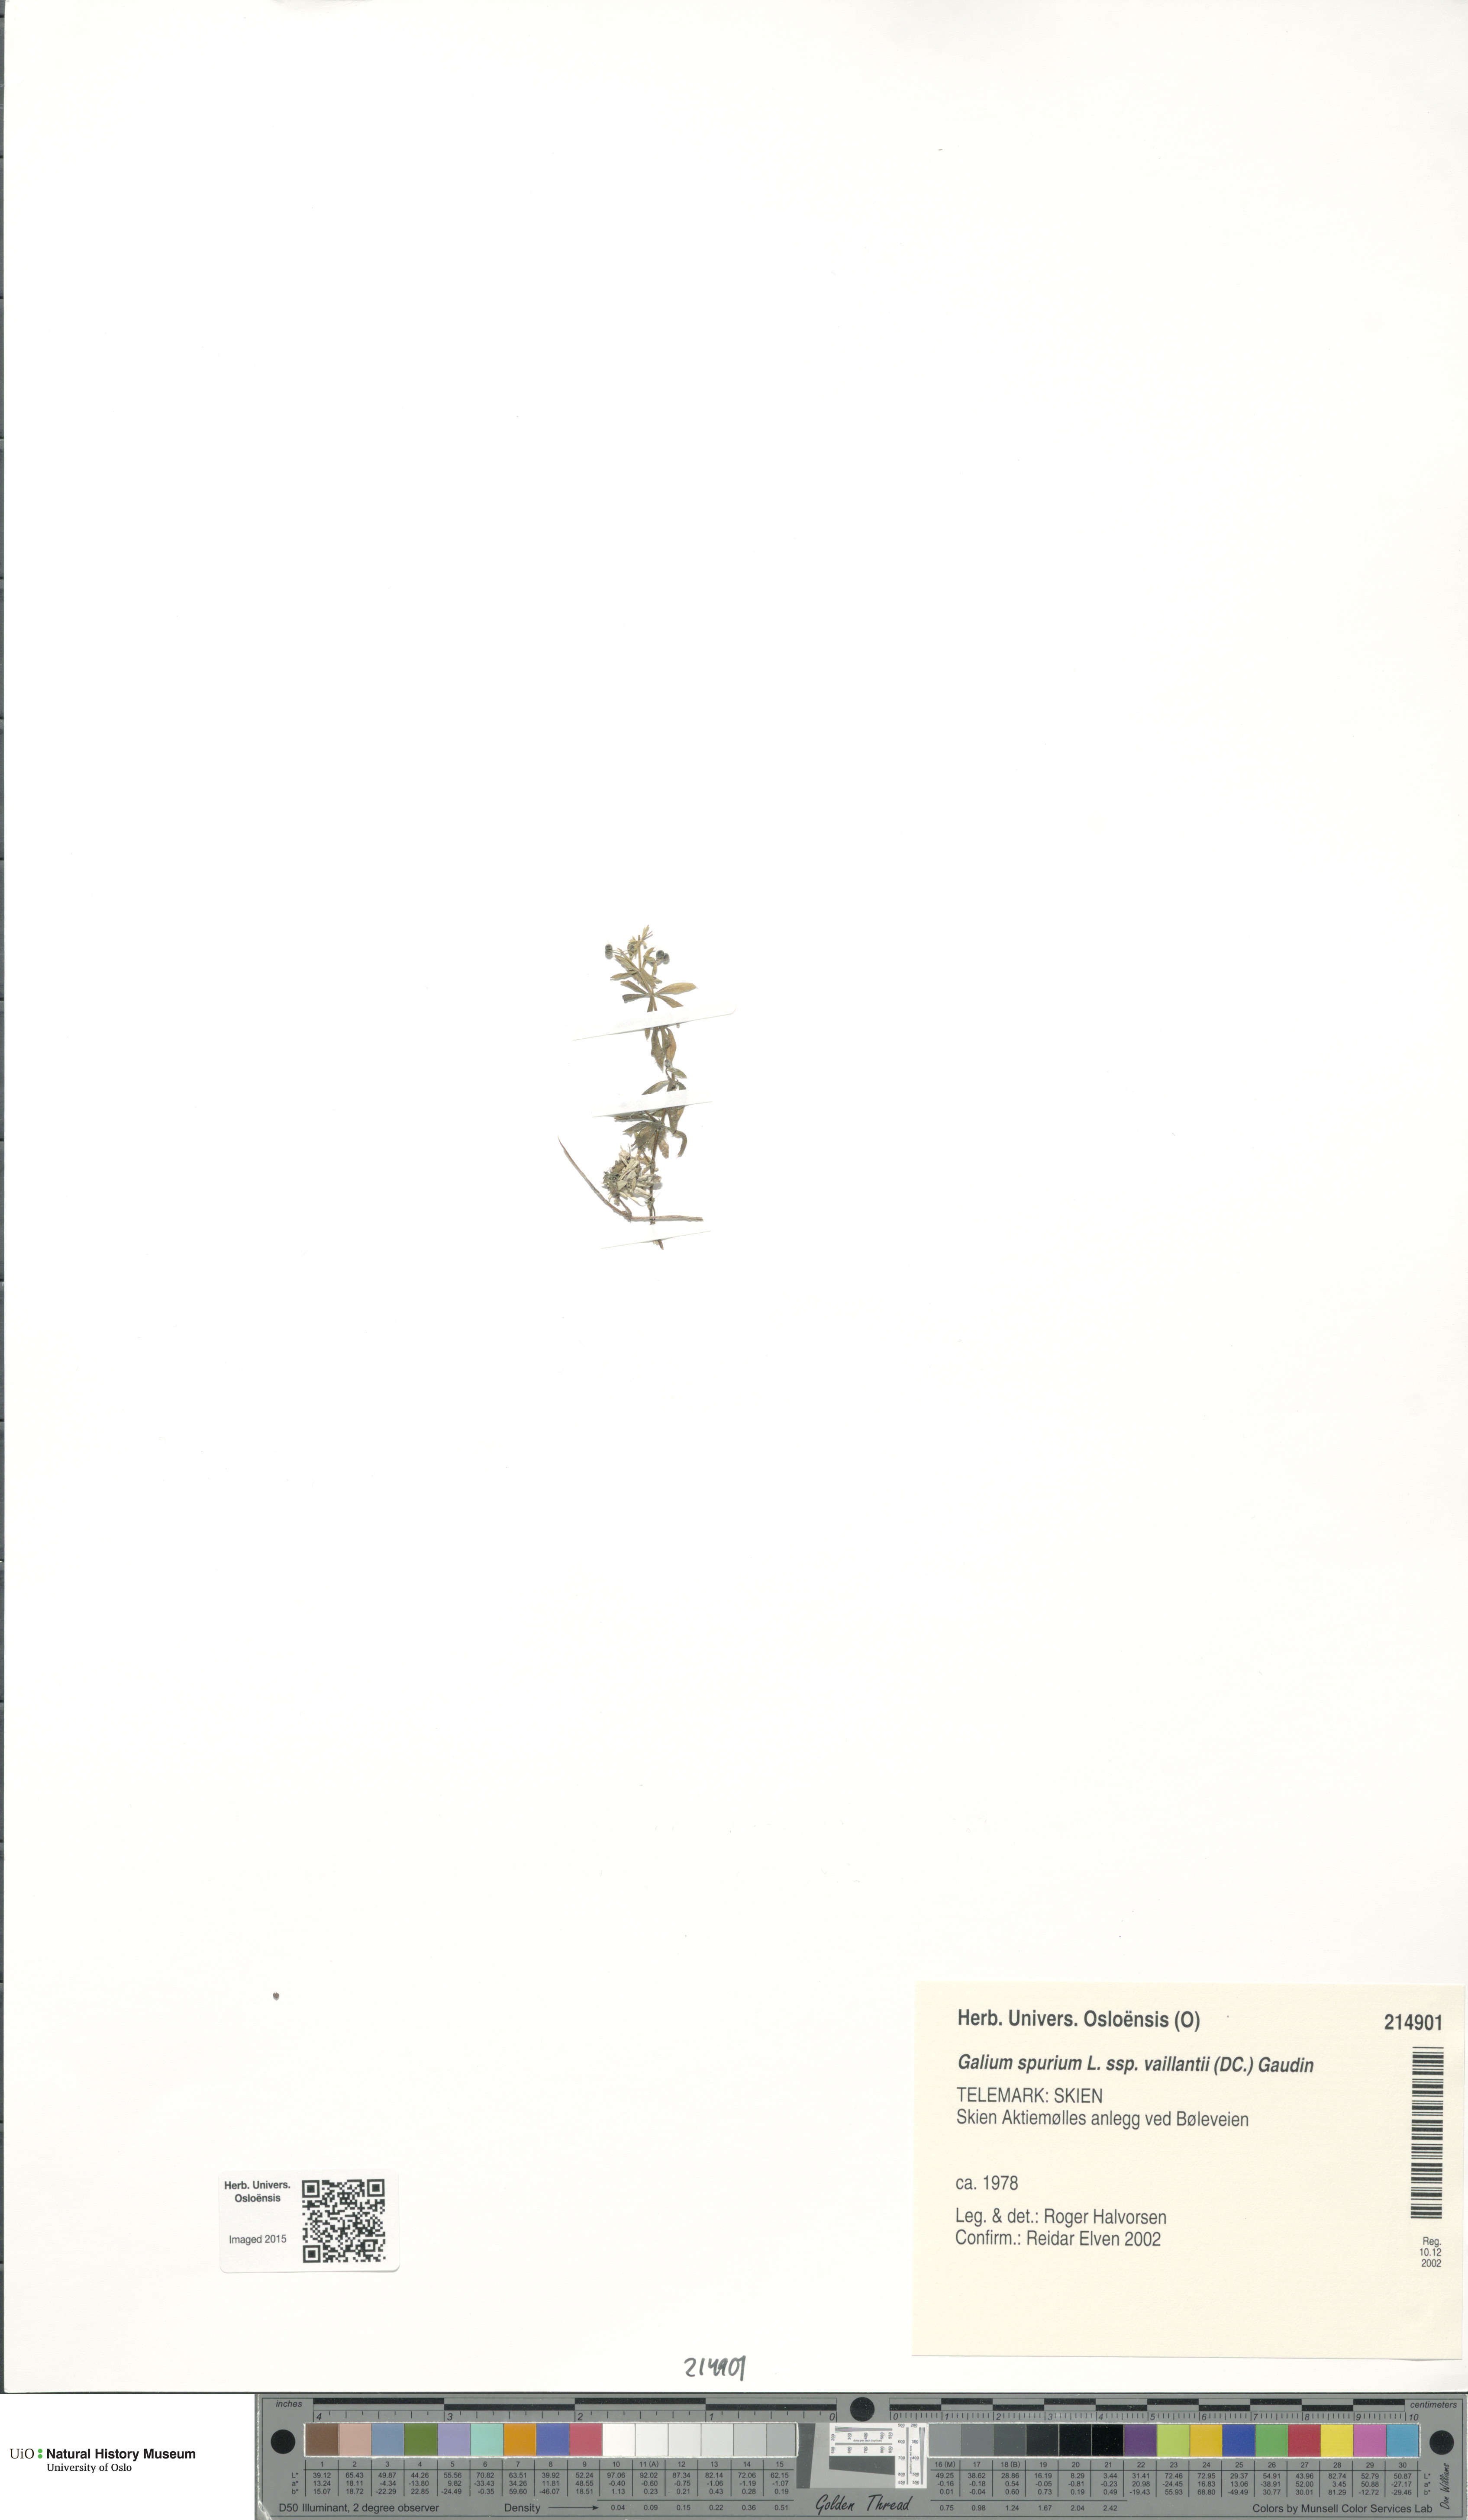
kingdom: Plantae
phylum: Tracheophyta
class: Magnoliopsida
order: Gentianales
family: Rubiaceae
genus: Galium
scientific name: Galium spurium
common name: False cleavers
